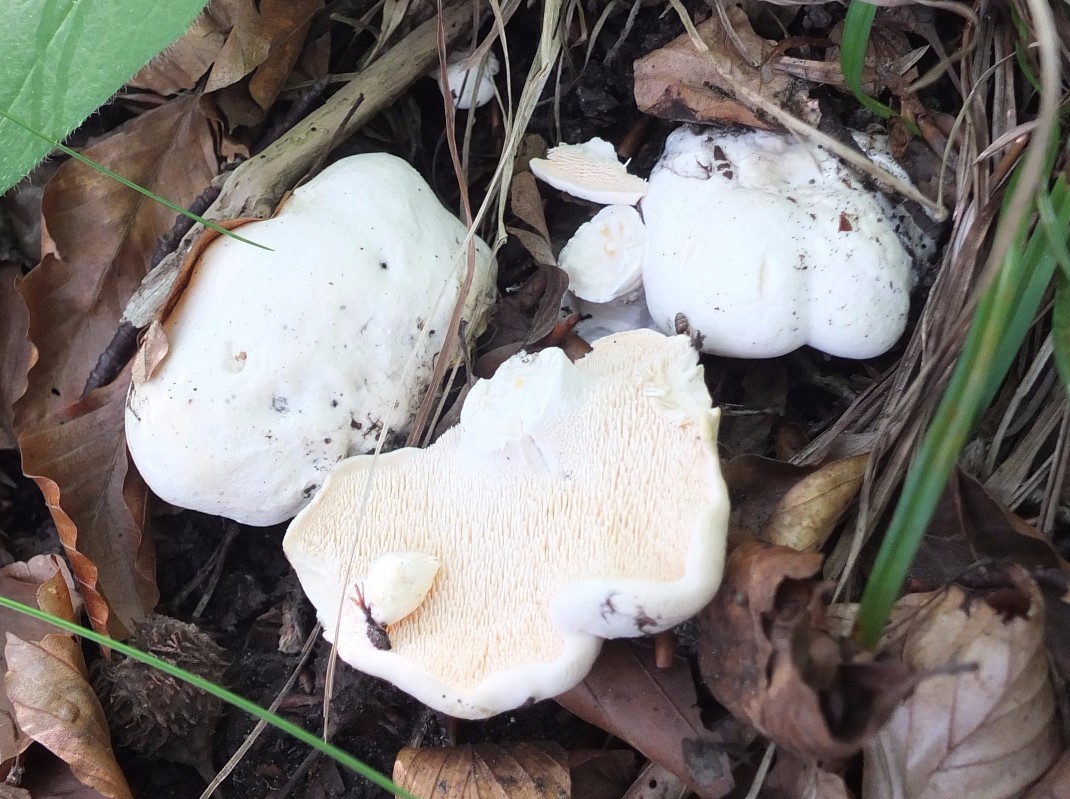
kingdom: Fungi
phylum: Basidiomycota
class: Agaricomycetes
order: Cantharellales
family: Hydnaceae
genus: Hydnum
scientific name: Hydnum repandum
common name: hvid pigsvamp
